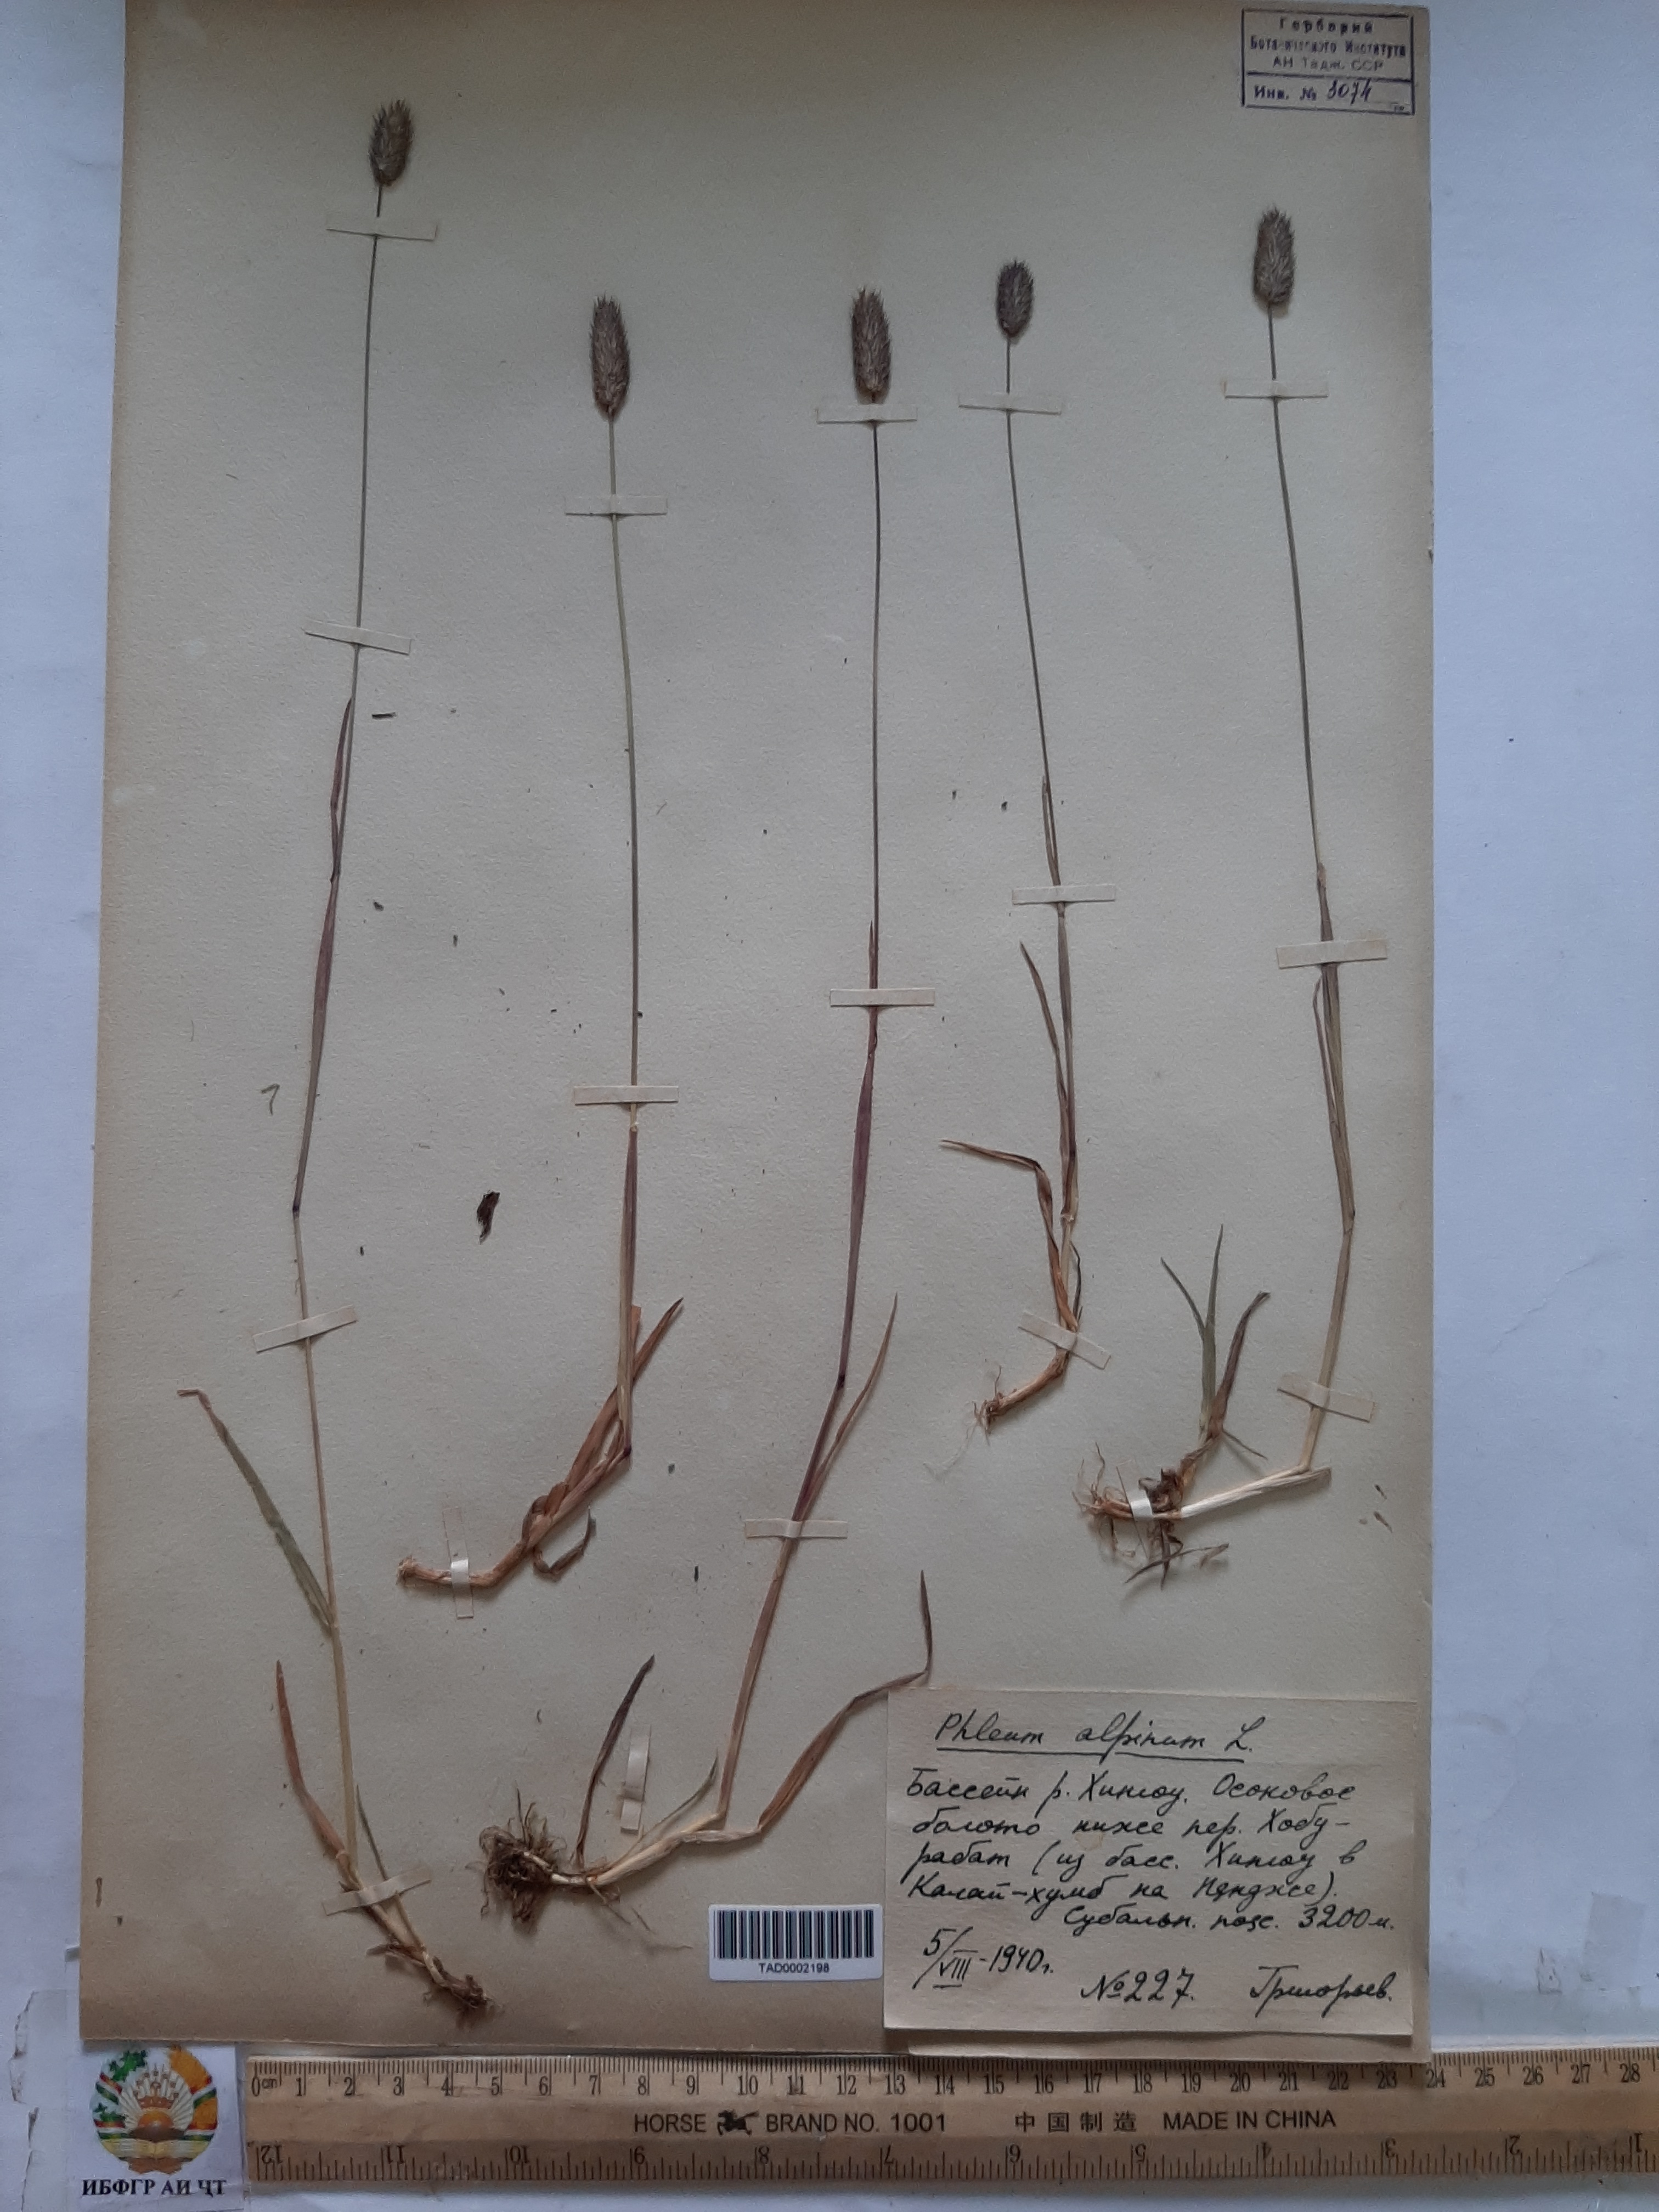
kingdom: Plantae
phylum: Tracheophyta
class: Liliopsida
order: Poales
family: Poaceae
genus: Phleum
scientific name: Phleum alpinum
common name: Alpine cat's-tail
